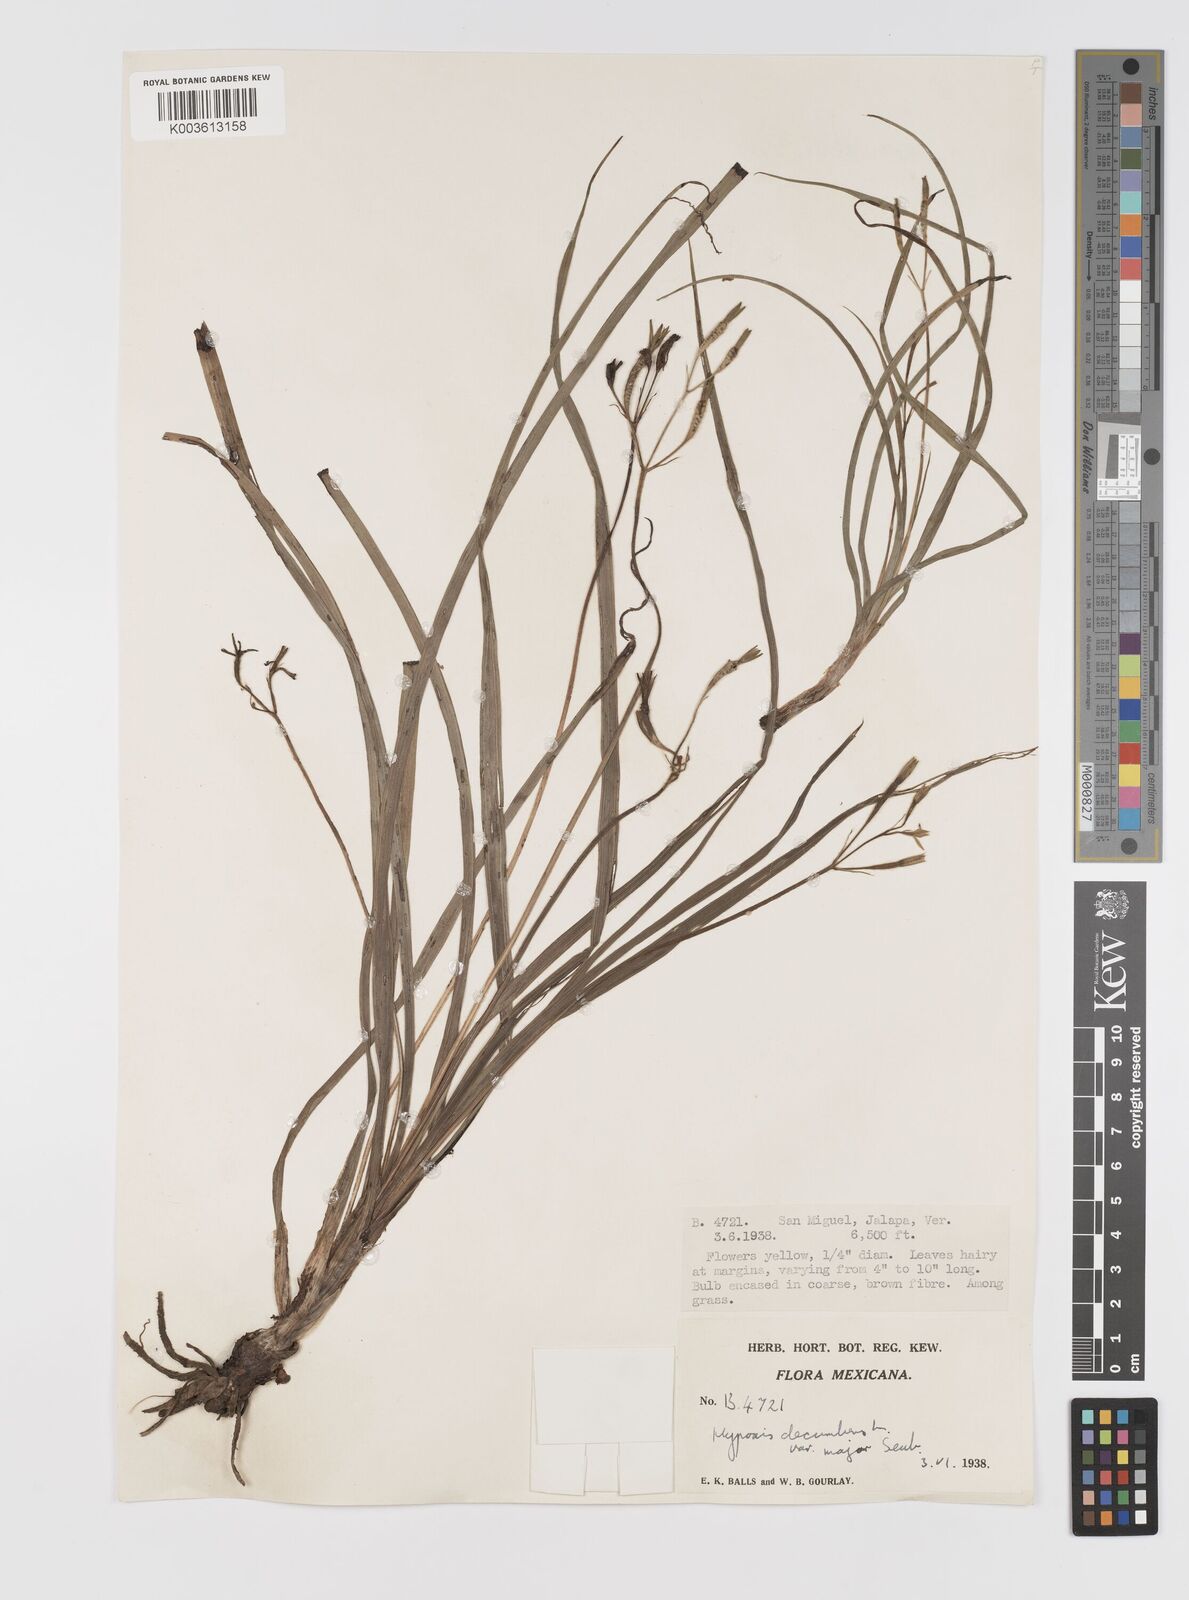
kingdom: Plantae
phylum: Tracheophyta
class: Liliopsida
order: Asparagales
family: Hypoxidaceae
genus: Hypoxis
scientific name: Hypoxis decumbens
